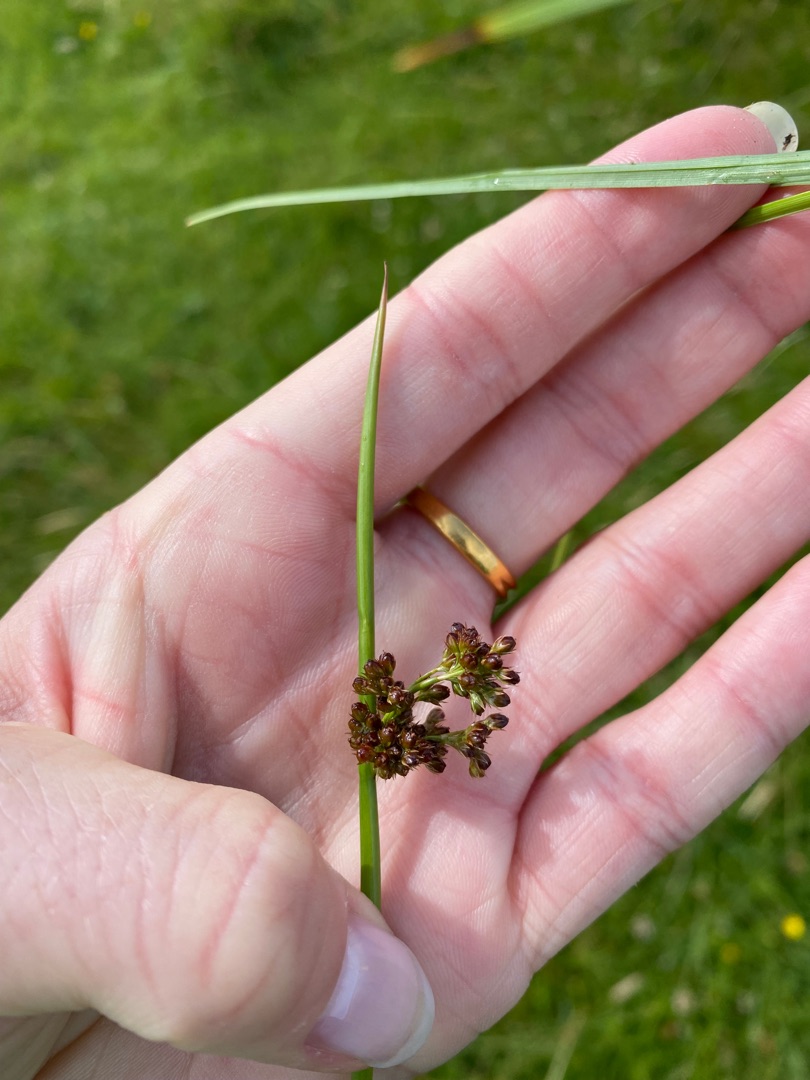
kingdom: Plantae
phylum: Tracheophyta
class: Liliopsida
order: Poales
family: Juncaceae
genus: Juncus
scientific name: Juncus effusus
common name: Lyse-siv
